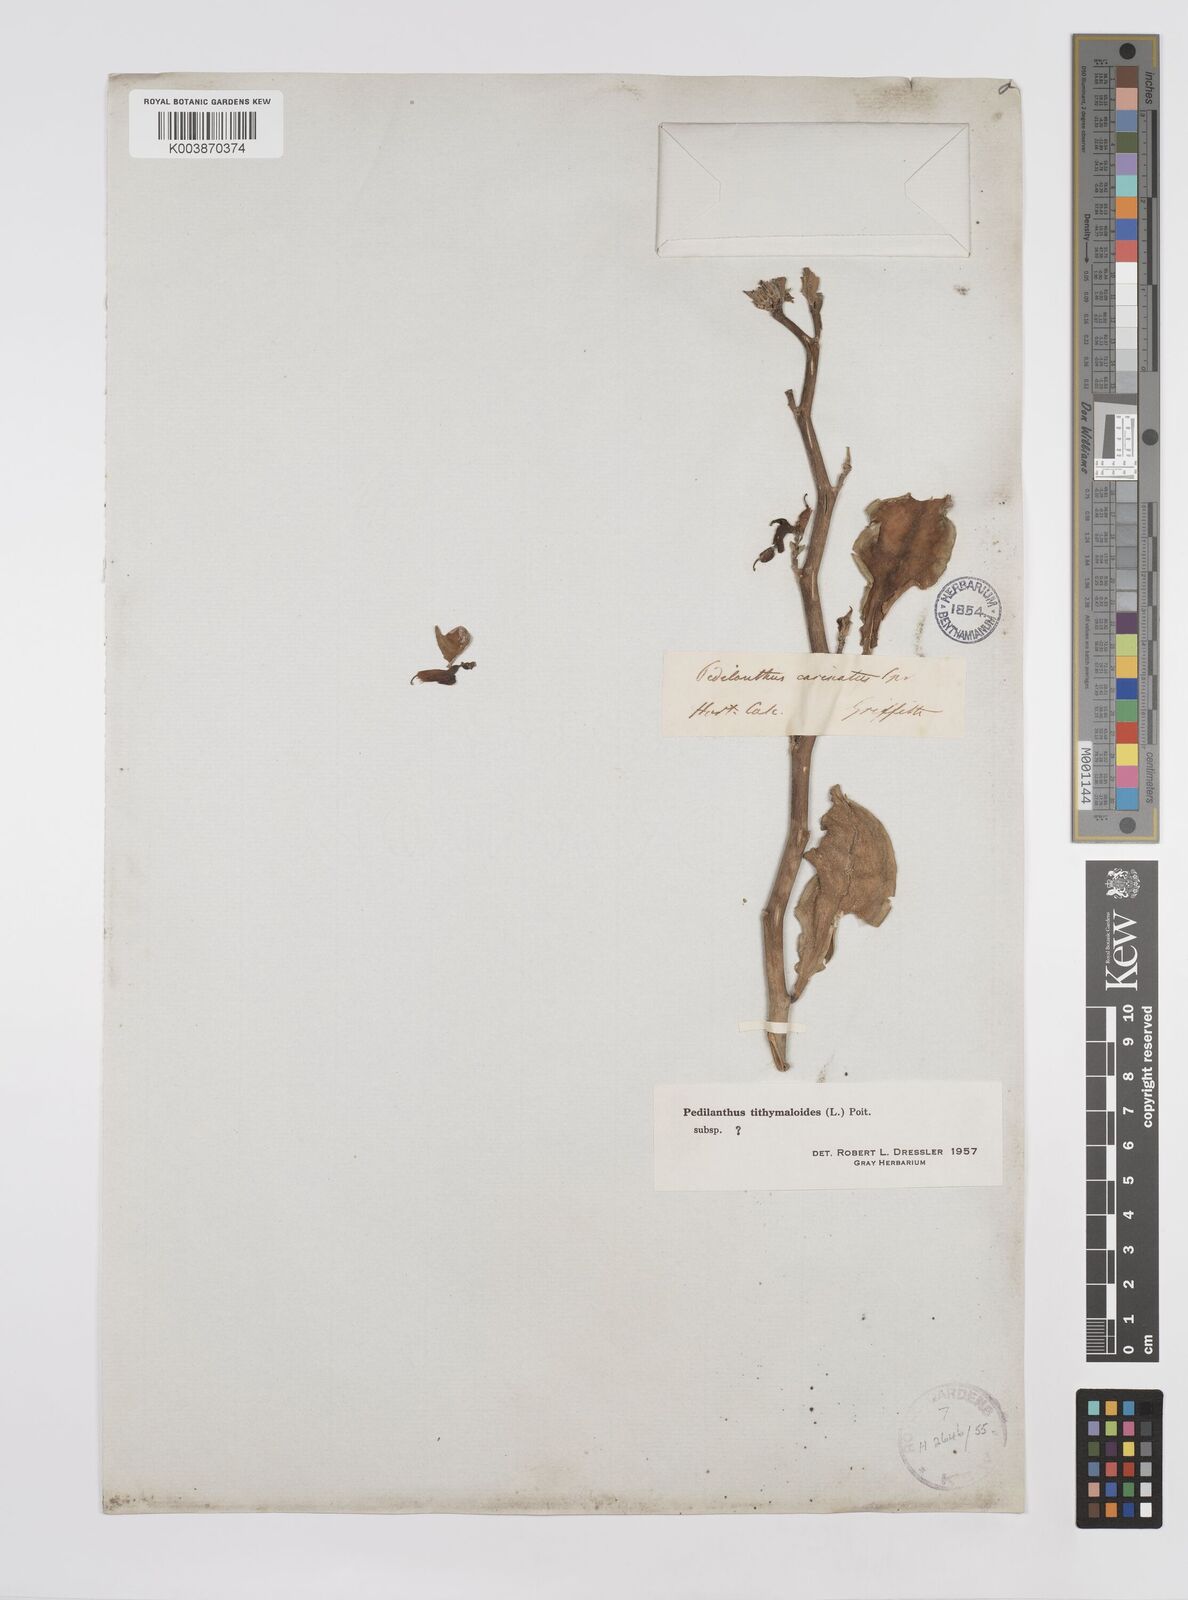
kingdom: Plantae
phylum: Tracheophyta
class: Magnoliopsida
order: Malpighiales
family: Euphorbiaceae
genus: Euphorbia
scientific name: Euphorbia tithymaloides
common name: Slipperplant
